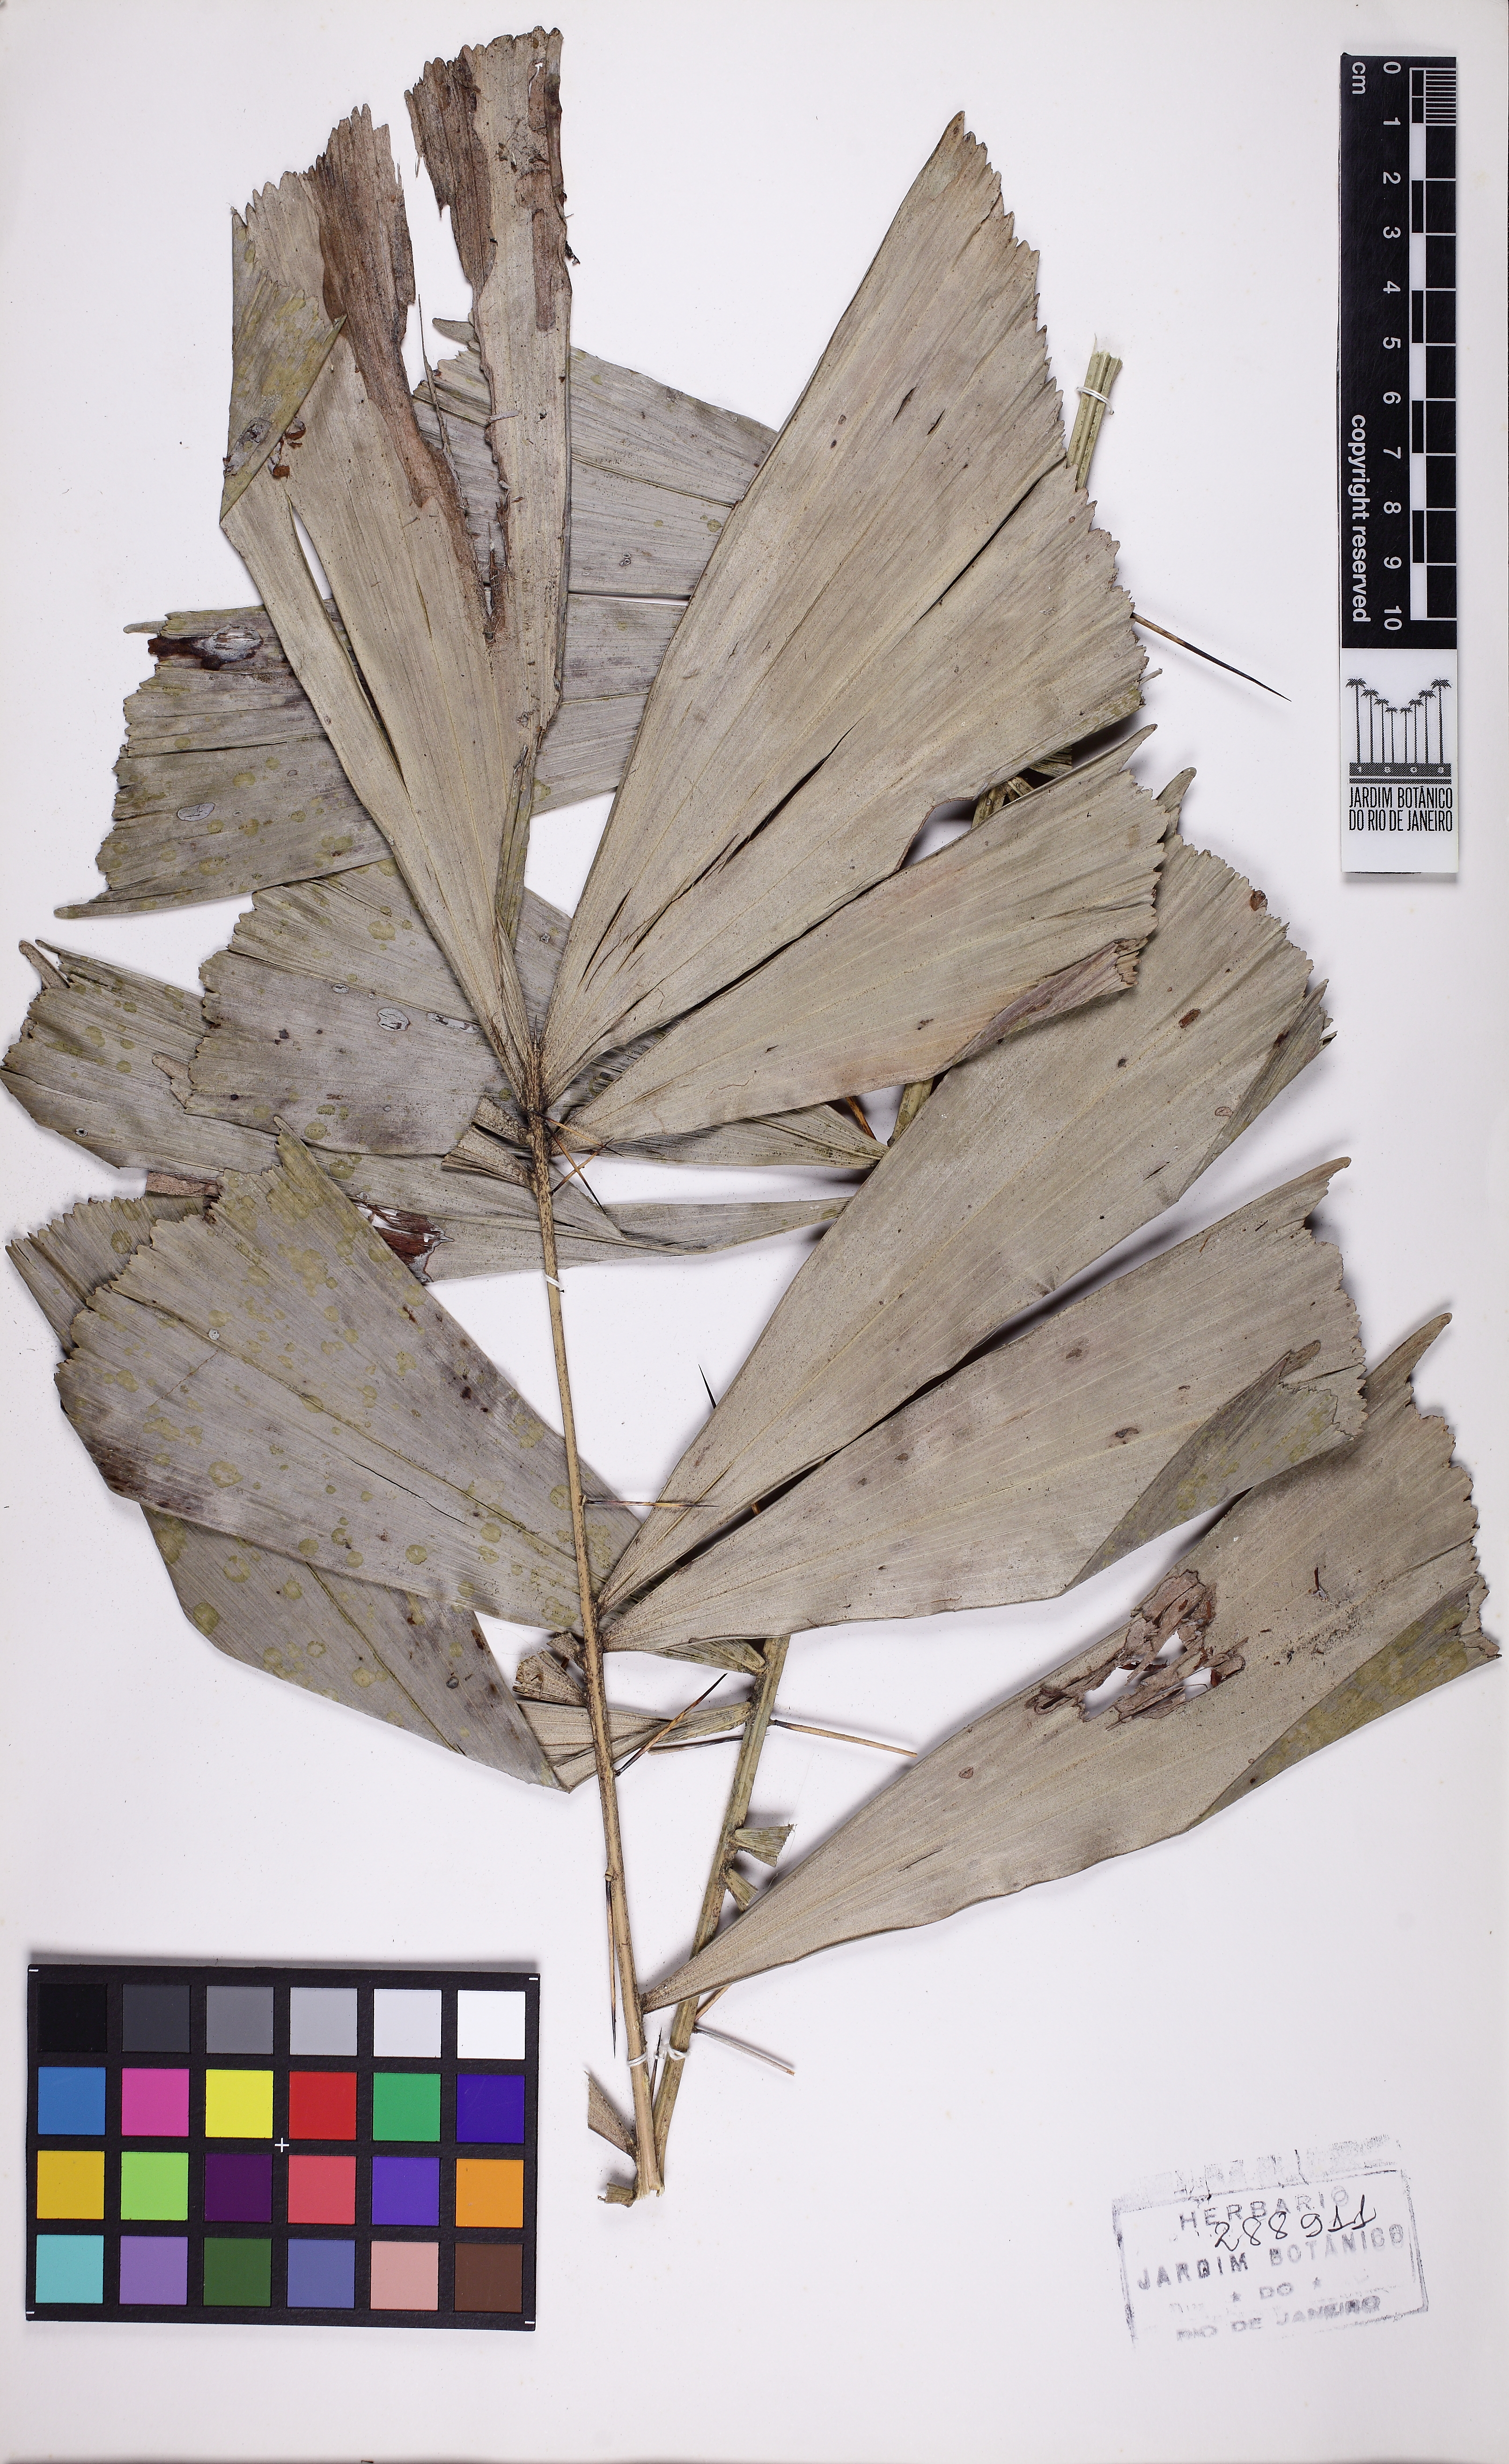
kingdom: Plantae
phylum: Tracheophyta
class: Liliopsida
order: Arecales
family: Arecaceae
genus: Bactris
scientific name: Bactris caryotifolia
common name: Caryota-leaf peach palm
